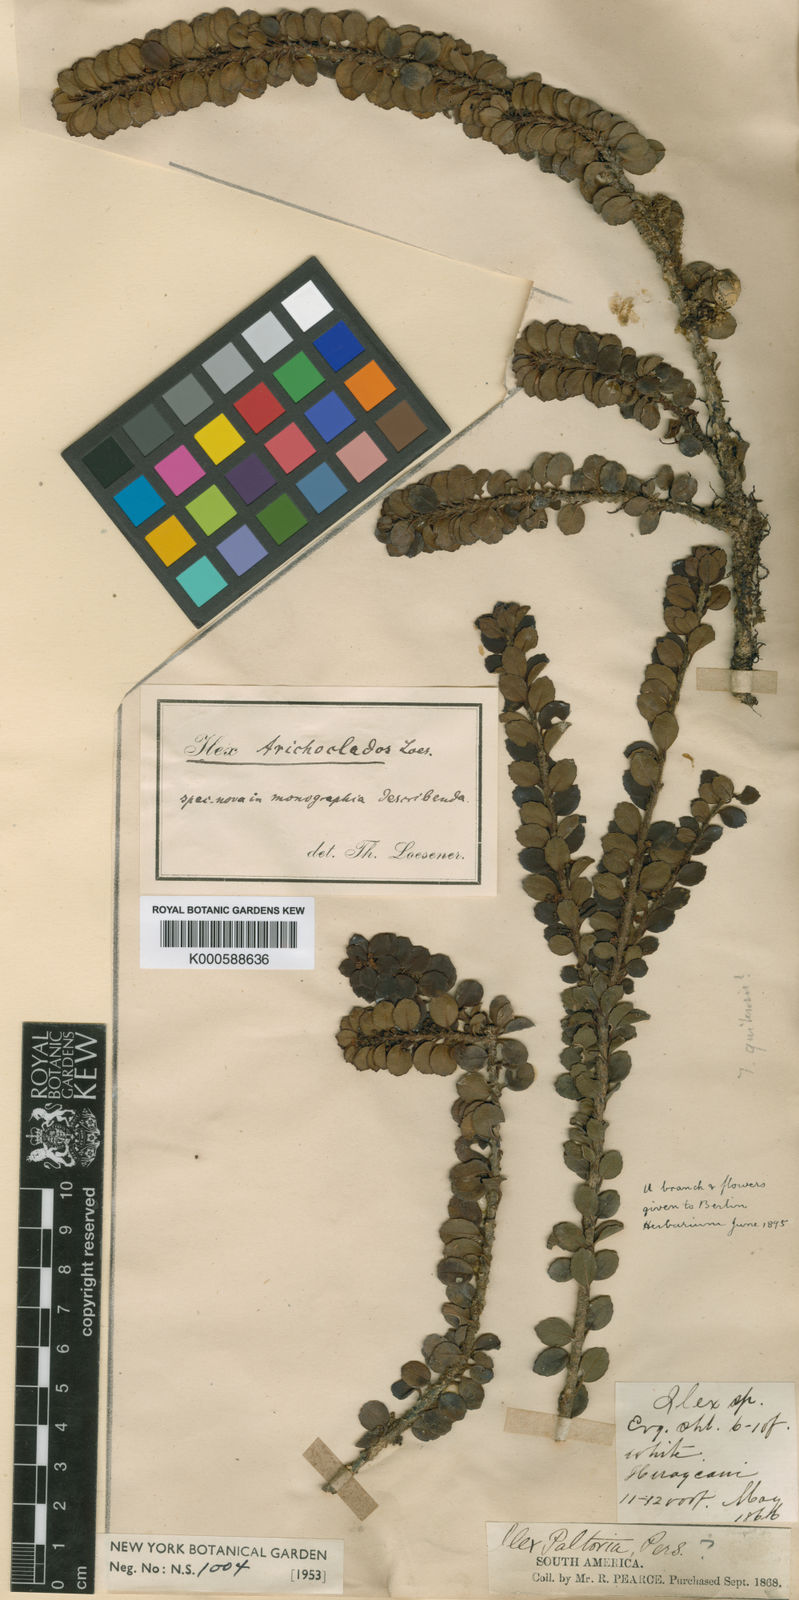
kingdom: Plantae
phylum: Tracheophyta
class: Magnoliopsida
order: Aquifoliales
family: Aquifoliaceae
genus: Ilex
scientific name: Ilex trichoclada
